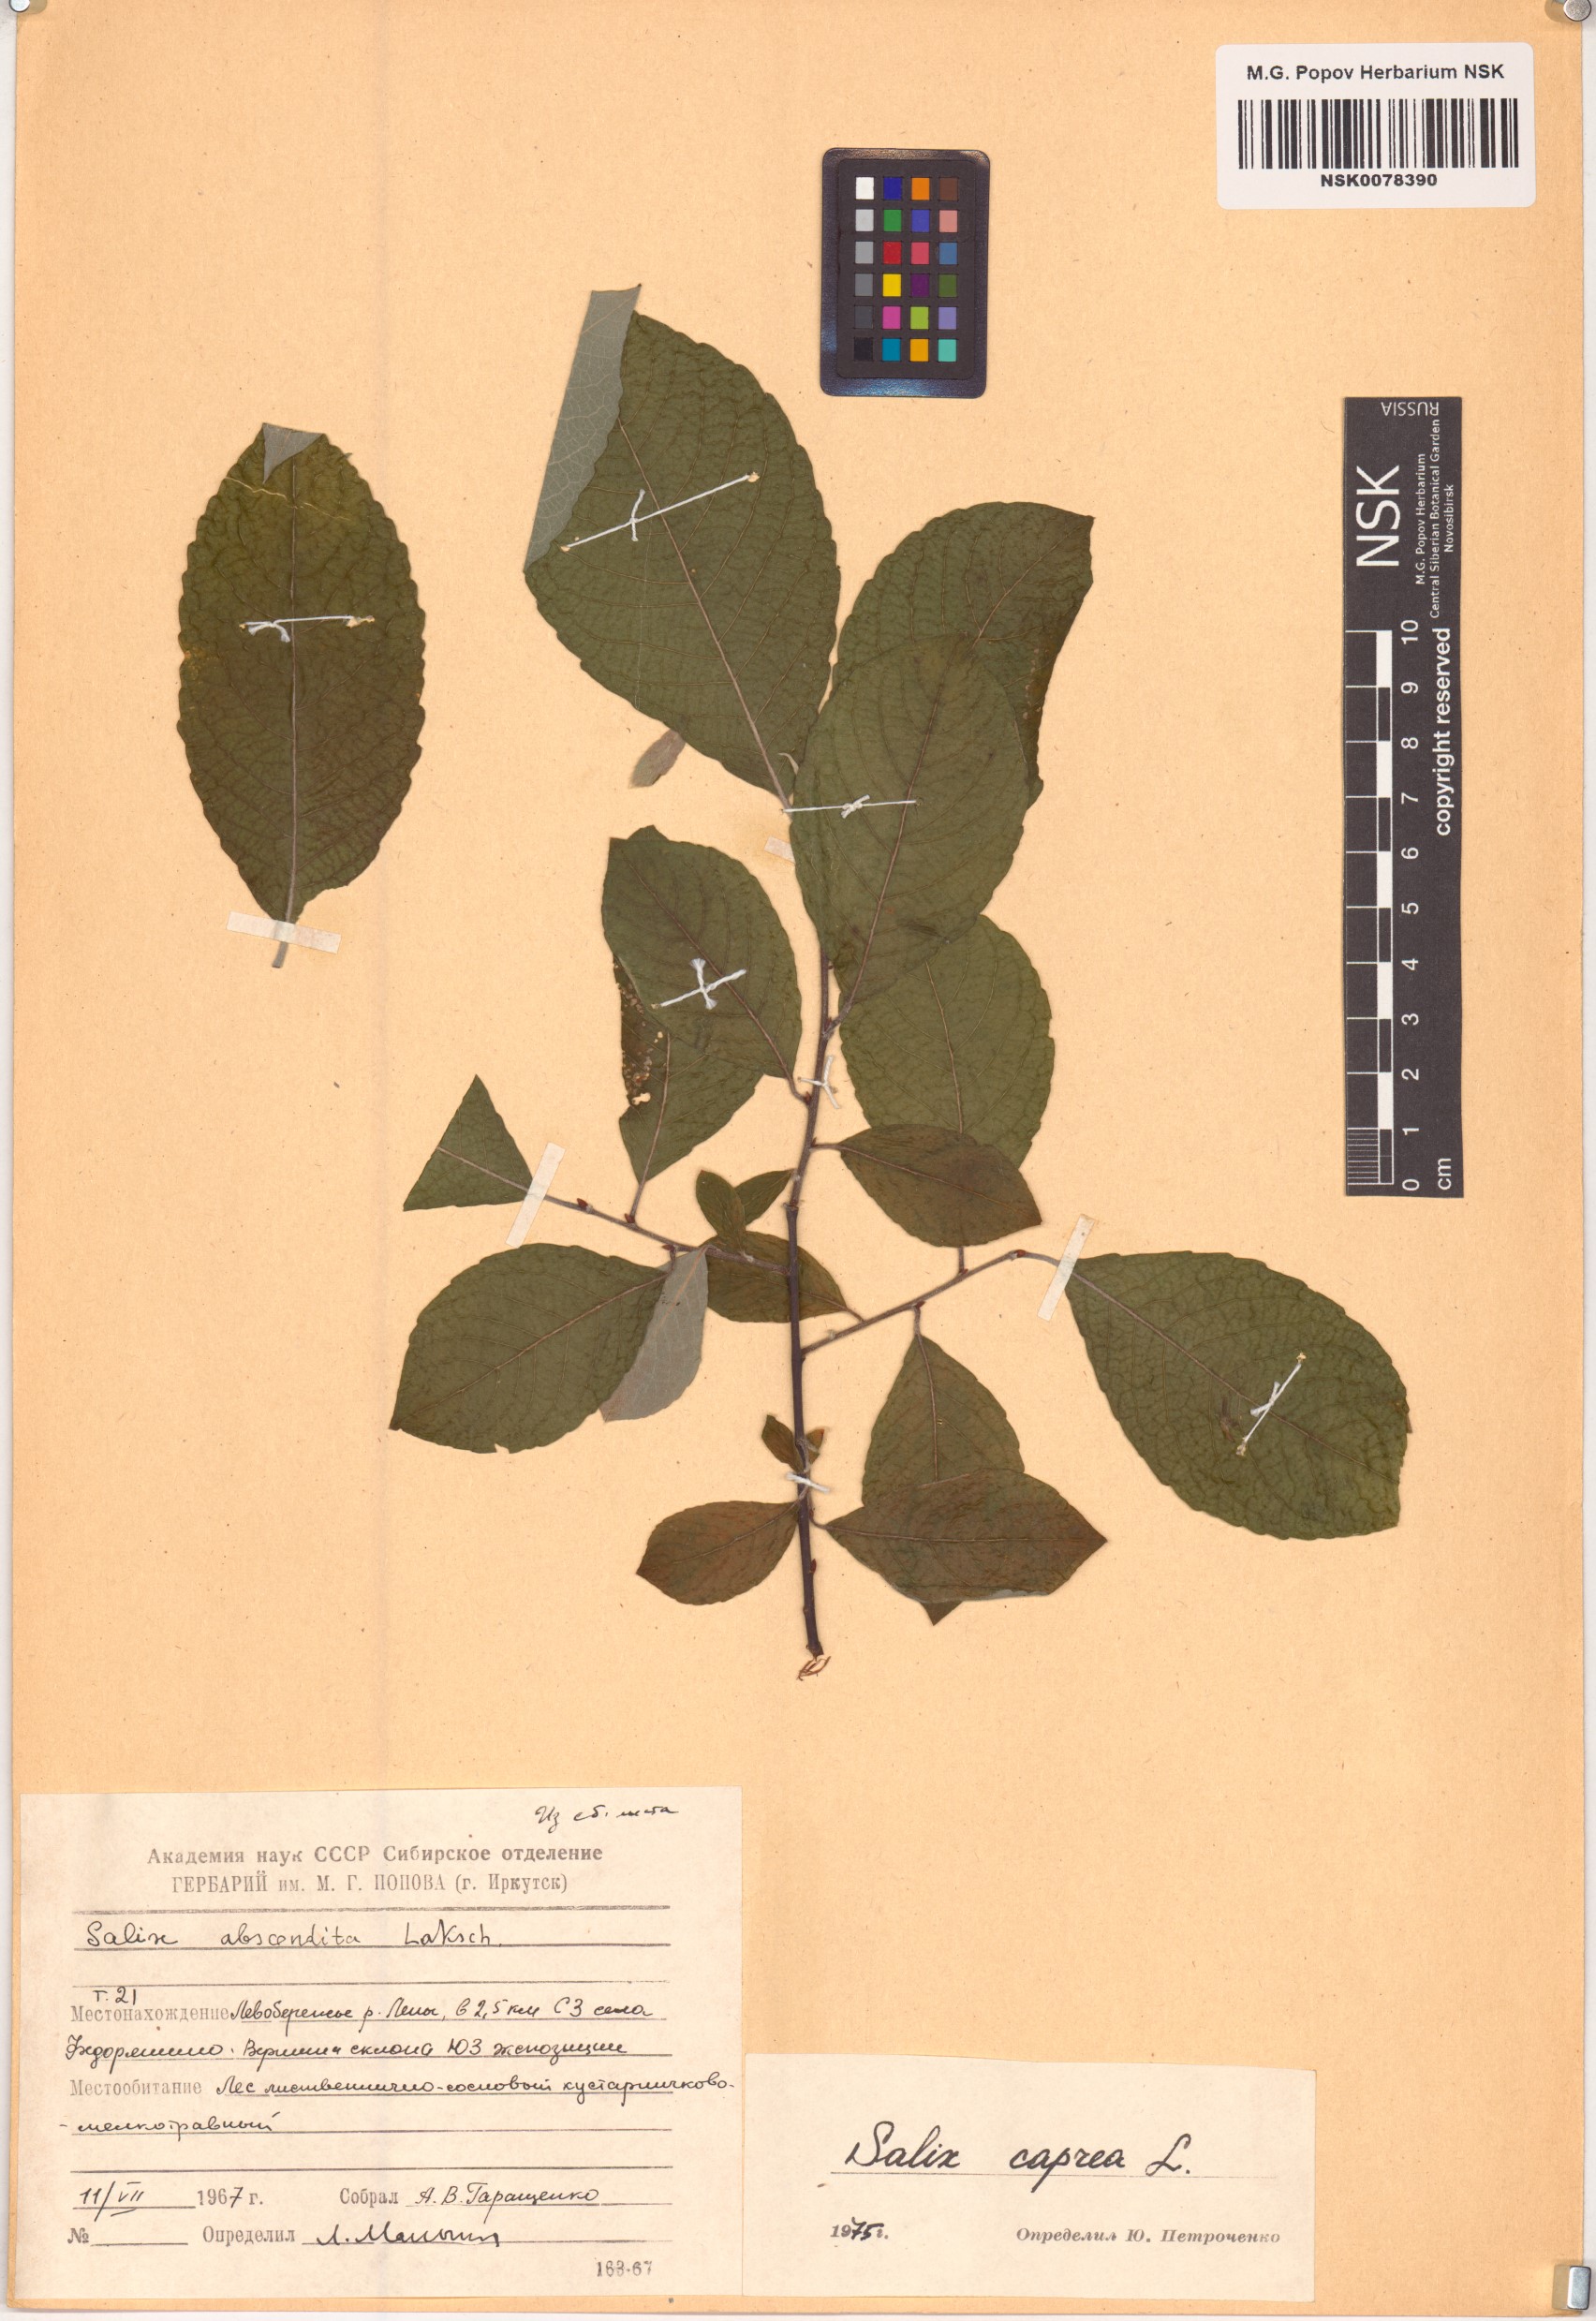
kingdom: Plantae
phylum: Tracheophyta
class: Magnoliopsida
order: Malpighiales
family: Salicaceae
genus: Salix
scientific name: Salix caprea
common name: Goat willow
